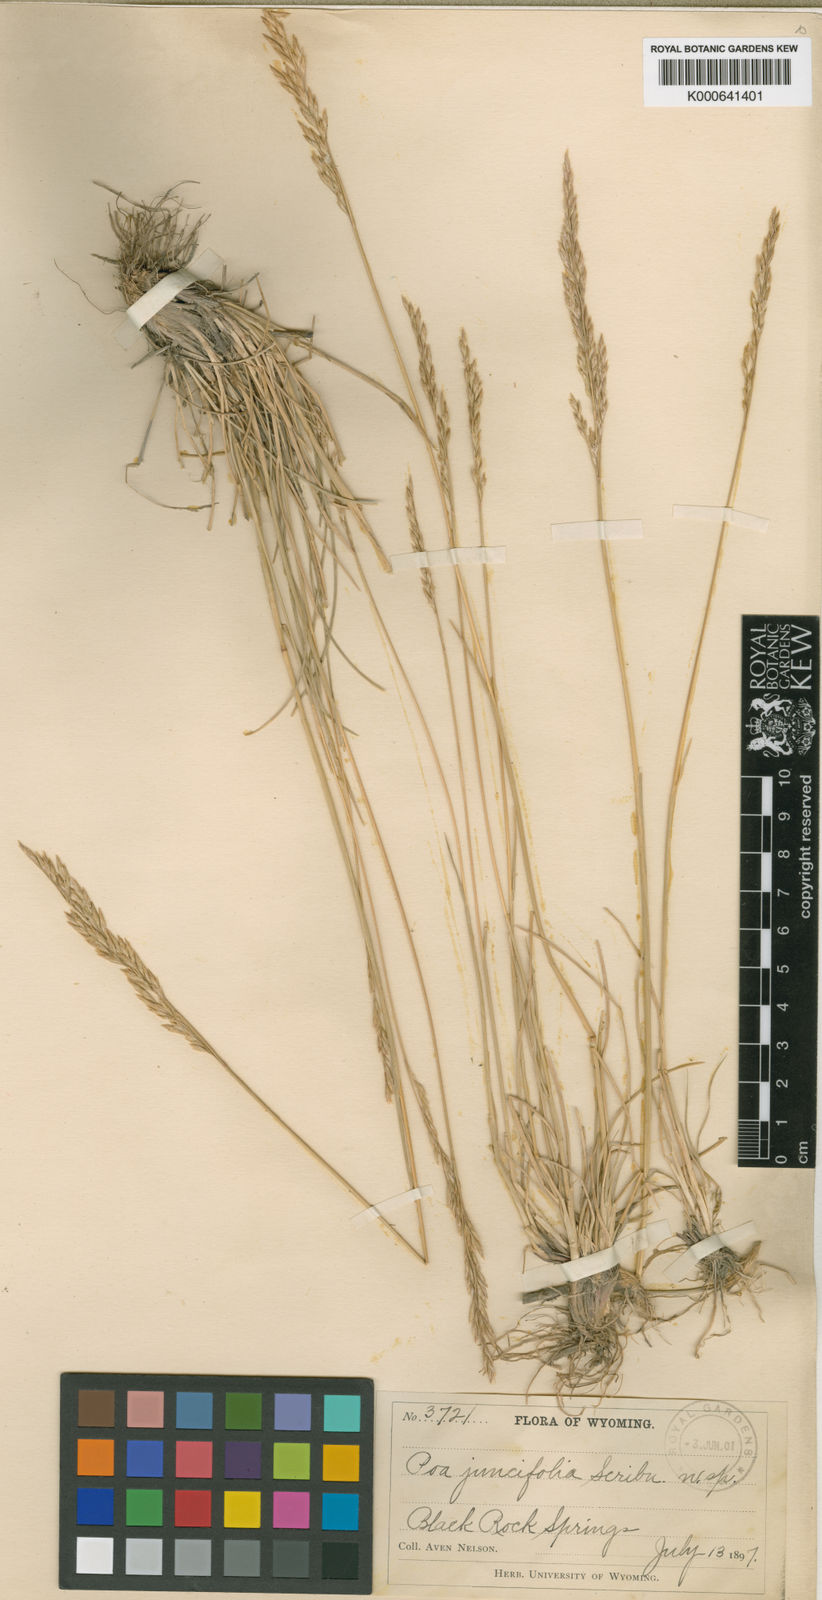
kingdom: Plantae
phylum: Tracheophyta
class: Liliopsida
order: Poales
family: Poaceae
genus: Poa
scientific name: Poa secunda
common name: Sandberg bluegrass
